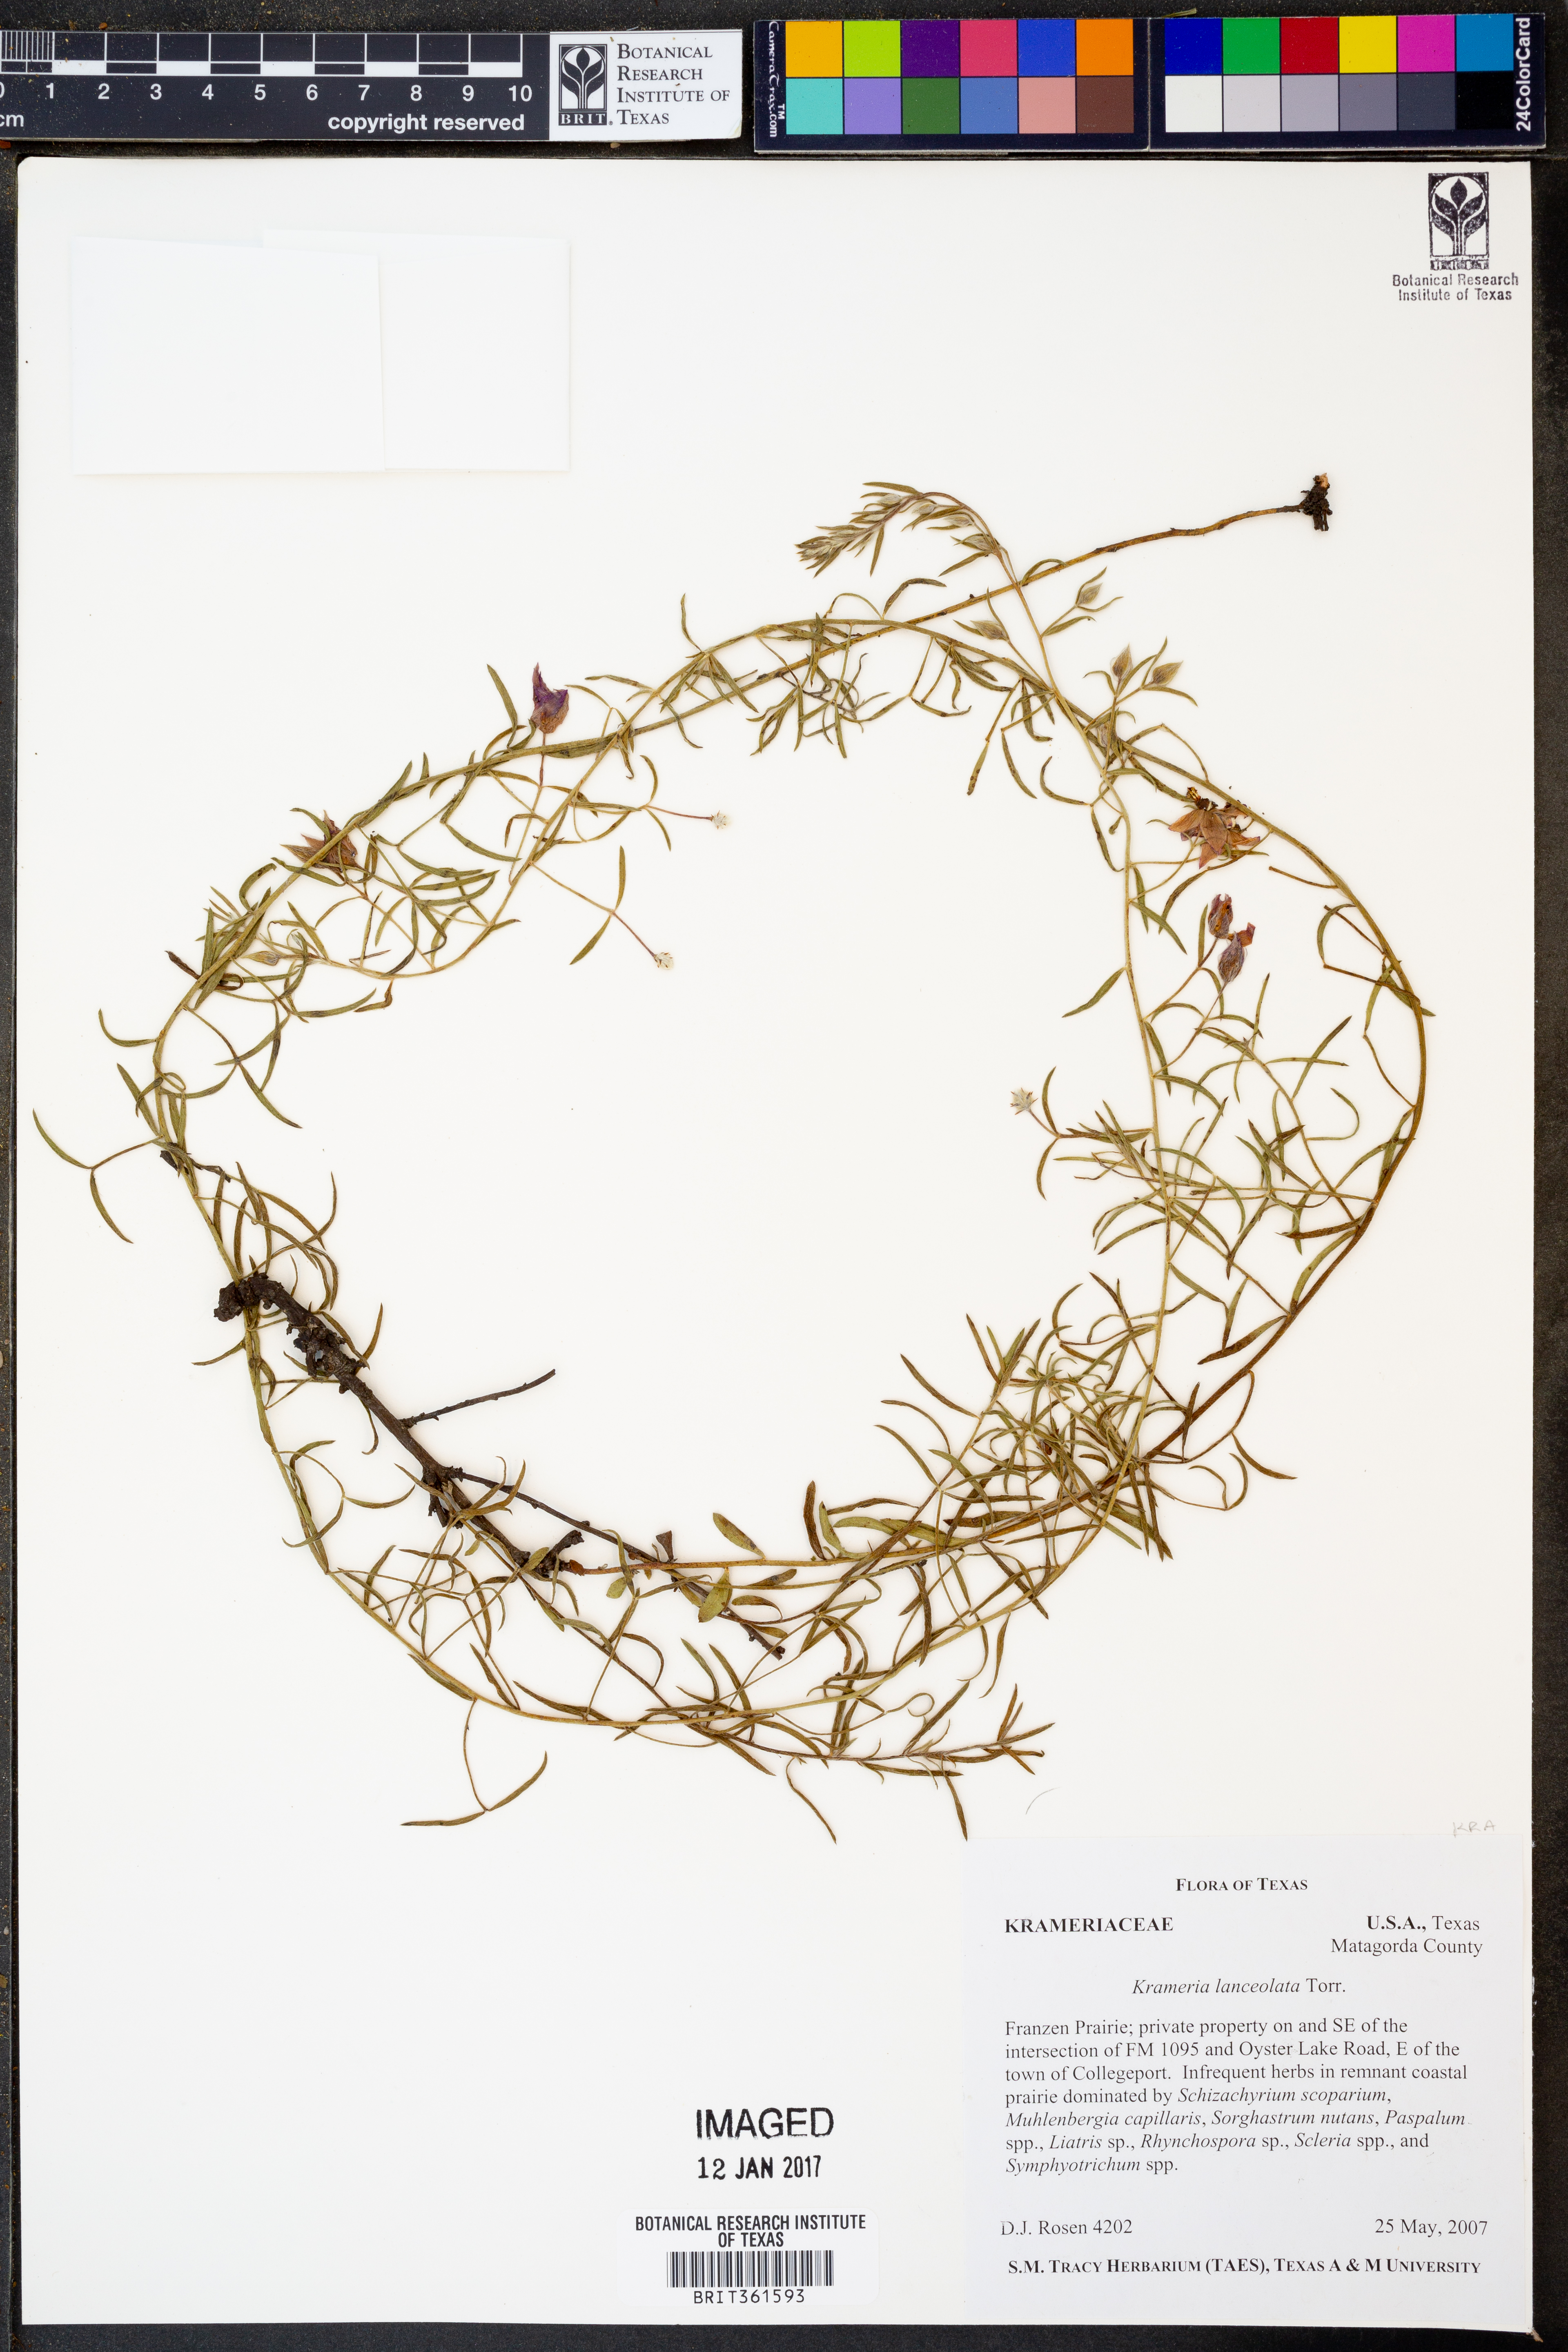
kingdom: Plantae
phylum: Tracheophyta
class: Magnoliopsida
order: Zygophyllales
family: Krameriaceae
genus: Krameria
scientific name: Krameria lanceolata
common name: Ratany
